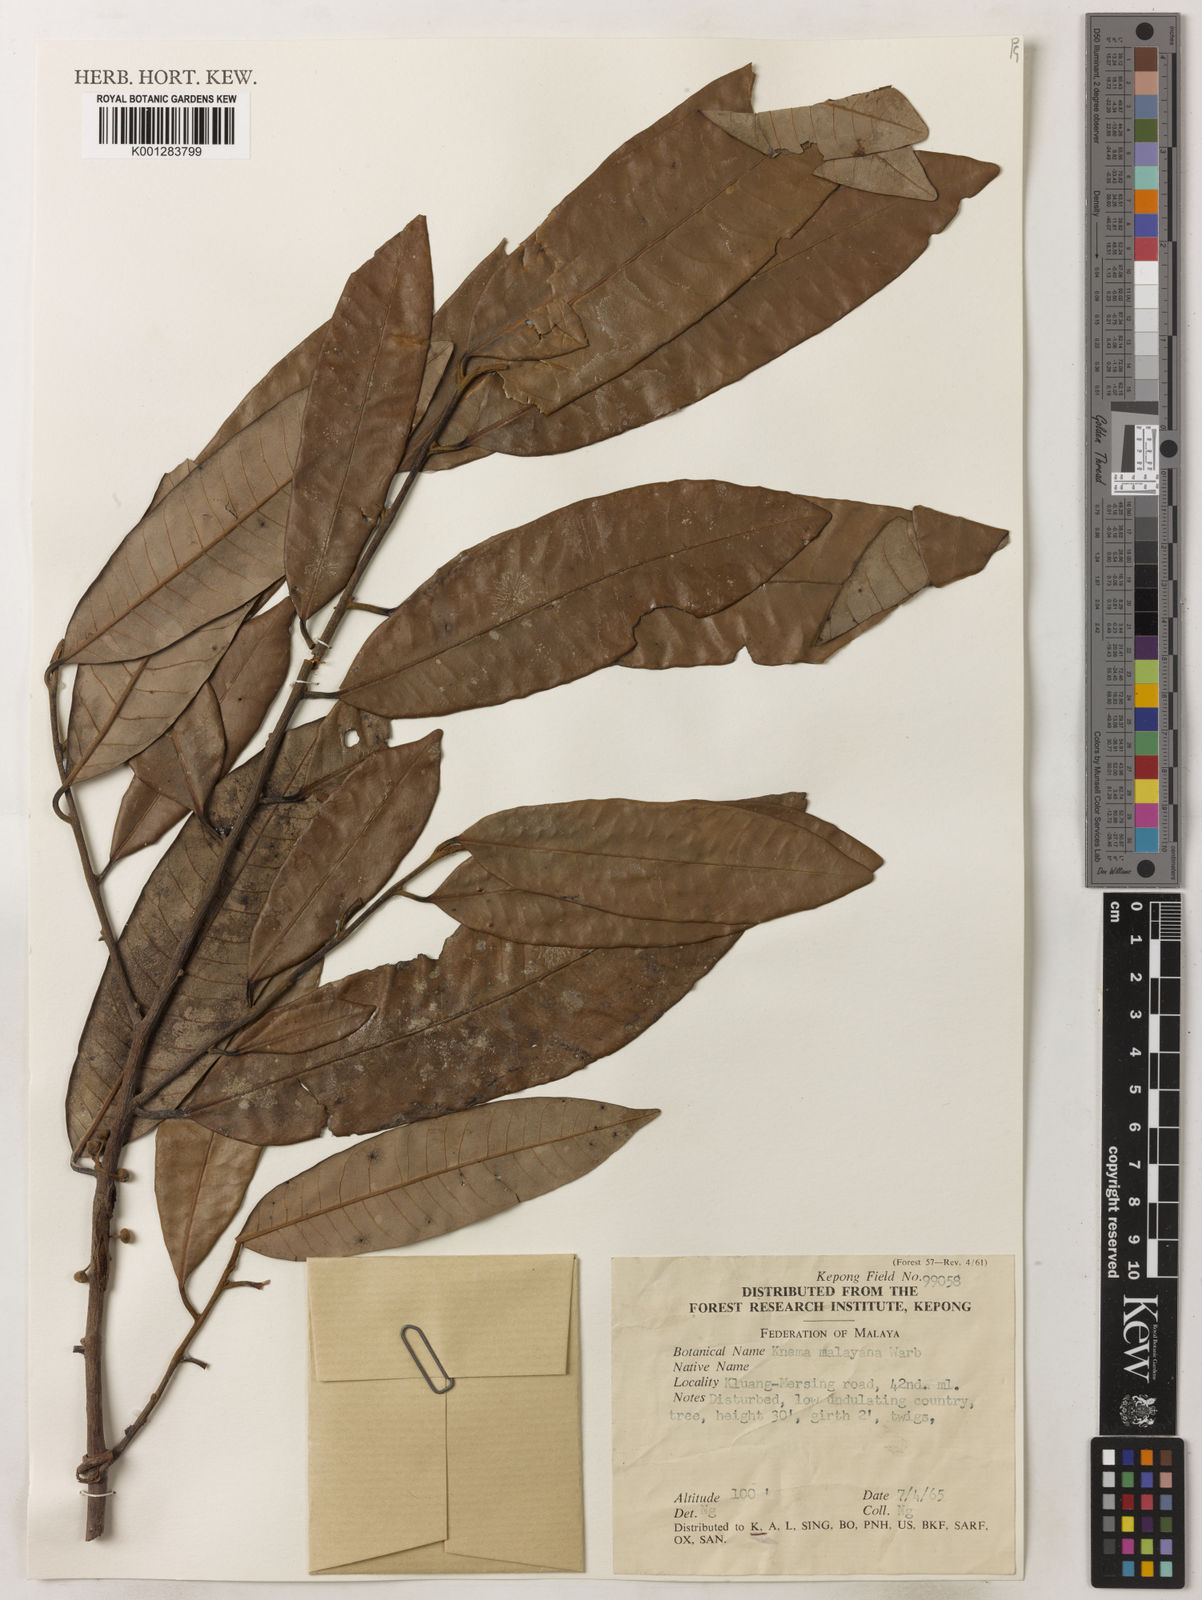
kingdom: Plantae
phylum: Tracheophyta
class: Magnoliopsida
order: Magnoliales
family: Myristicaceae
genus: Knema
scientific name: Knema malayana
